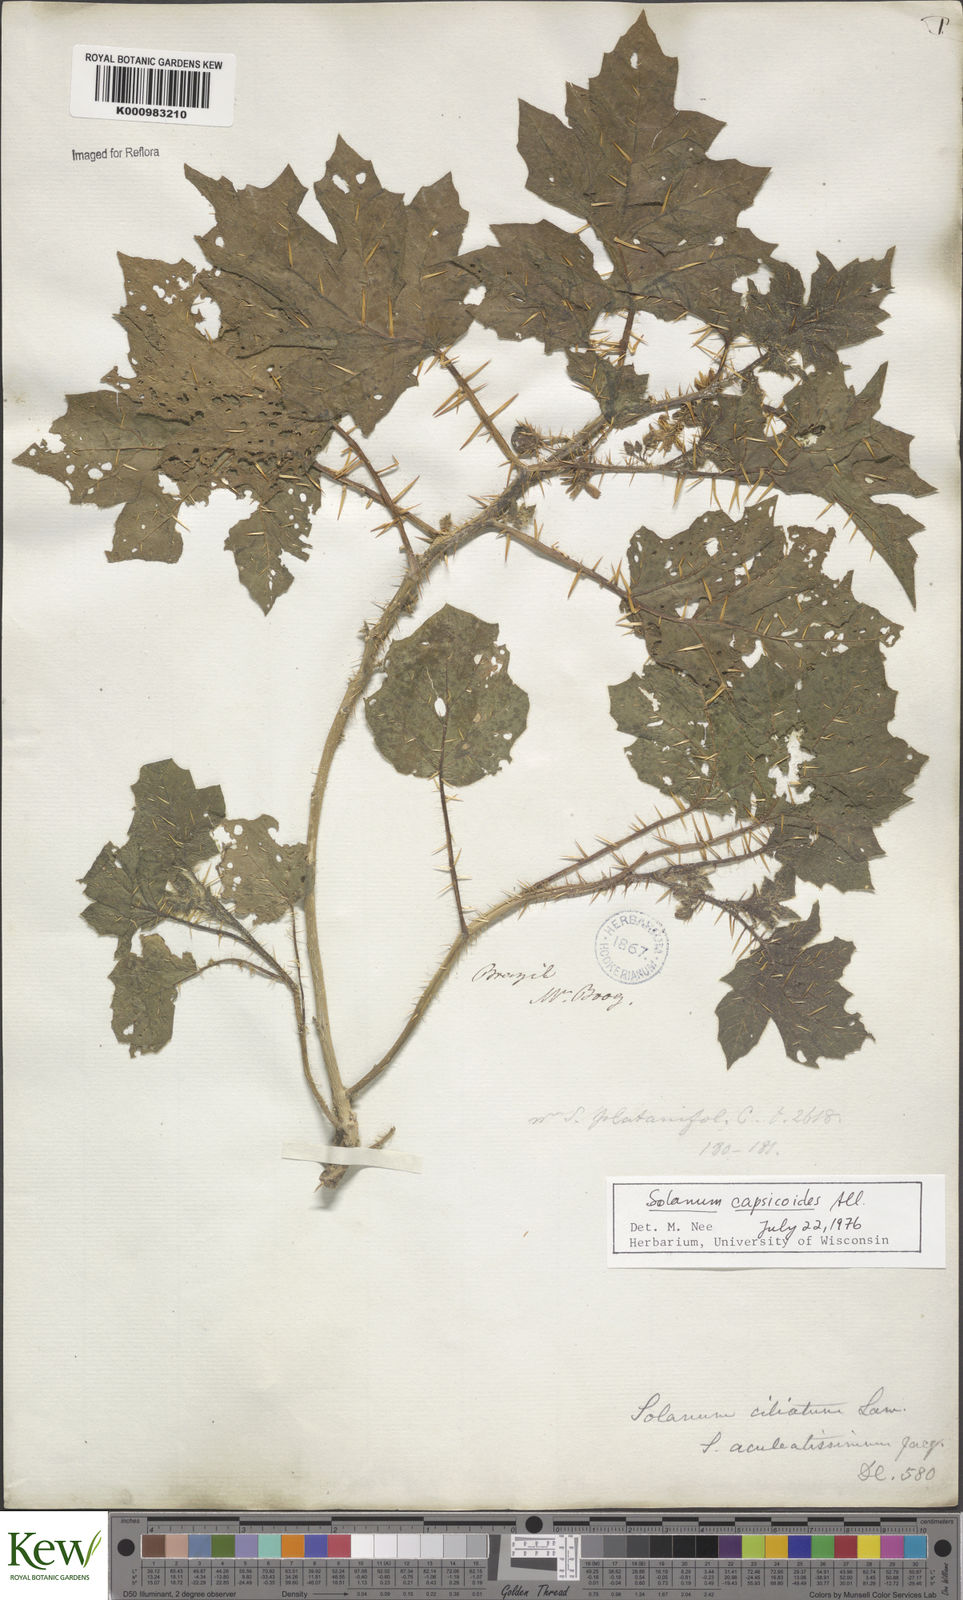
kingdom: Plantae
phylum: Tracheophyta
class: Magnoliopsida
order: Solanales
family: Solanaceae
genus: Solanum
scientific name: Solanum capsicoides
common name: Cockroach berry
